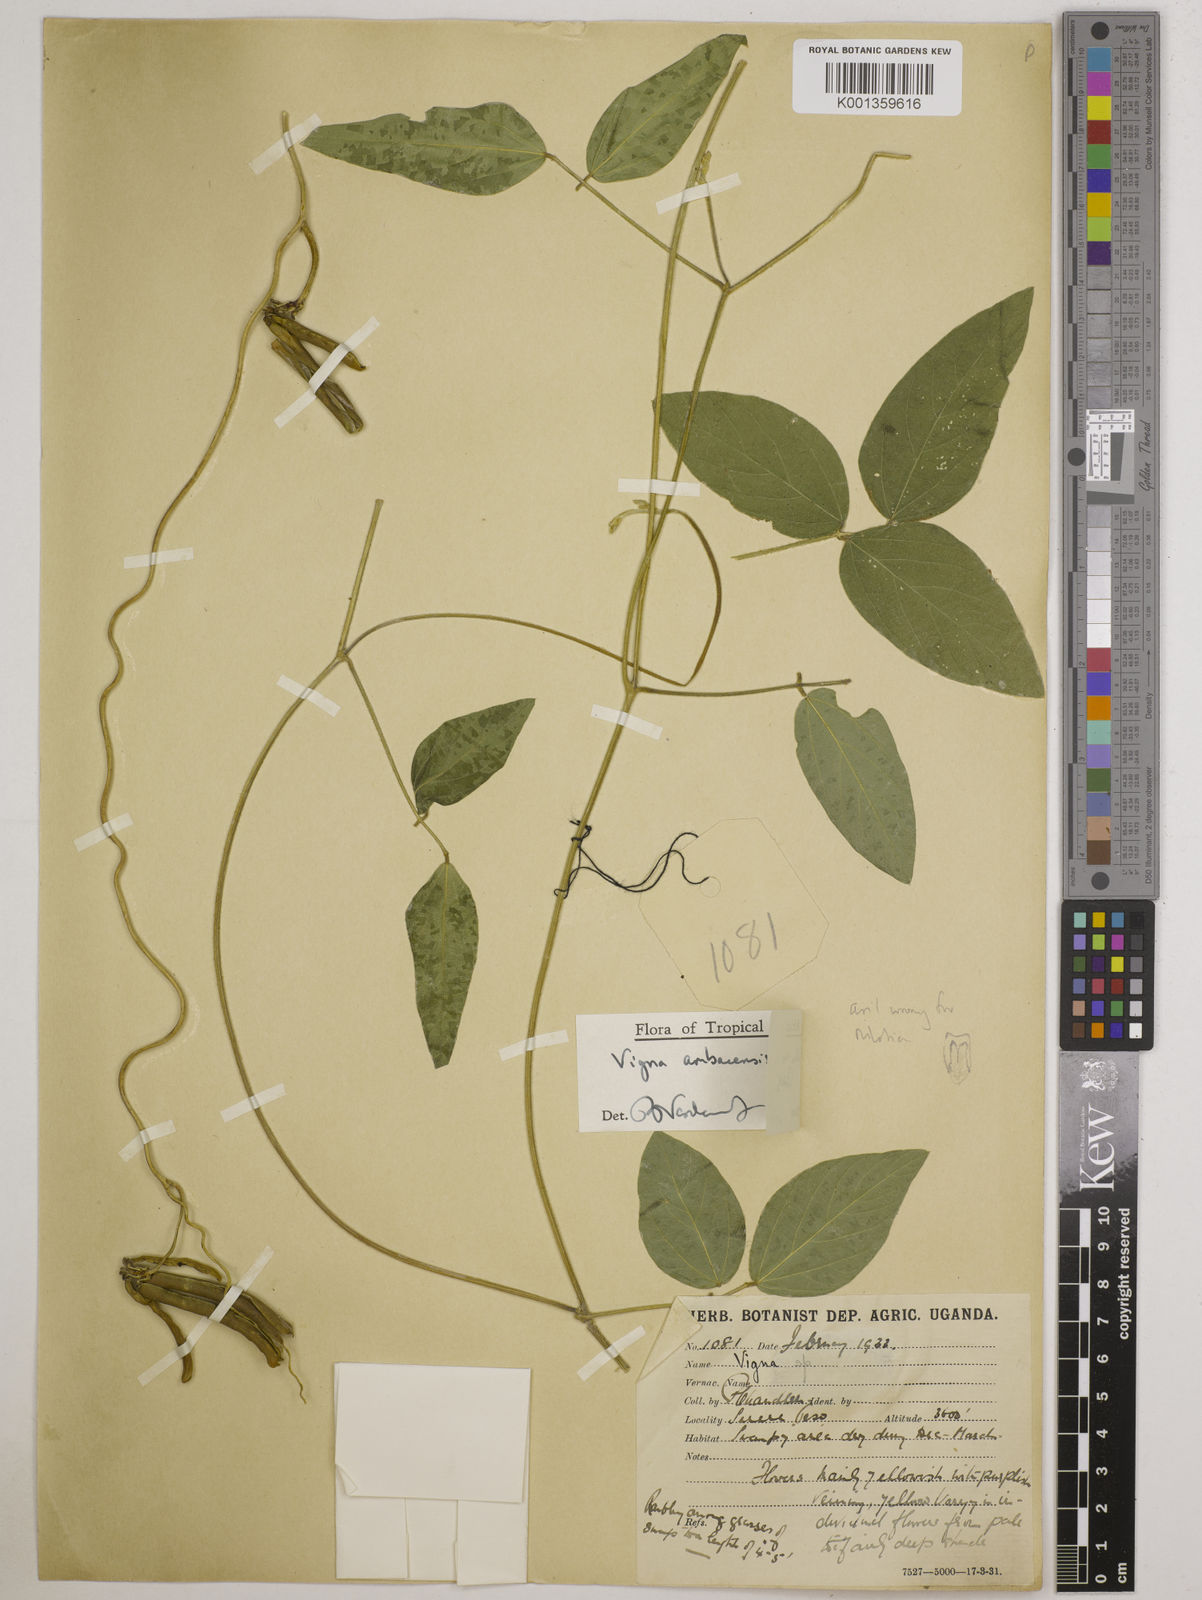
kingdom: Plantae
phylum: Tracheophyta
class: Magnoliopsida
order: Fabales
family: Fabaceae
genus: Vigna
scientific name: Vigna ambacensis
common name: Tsarkiyan zomo
